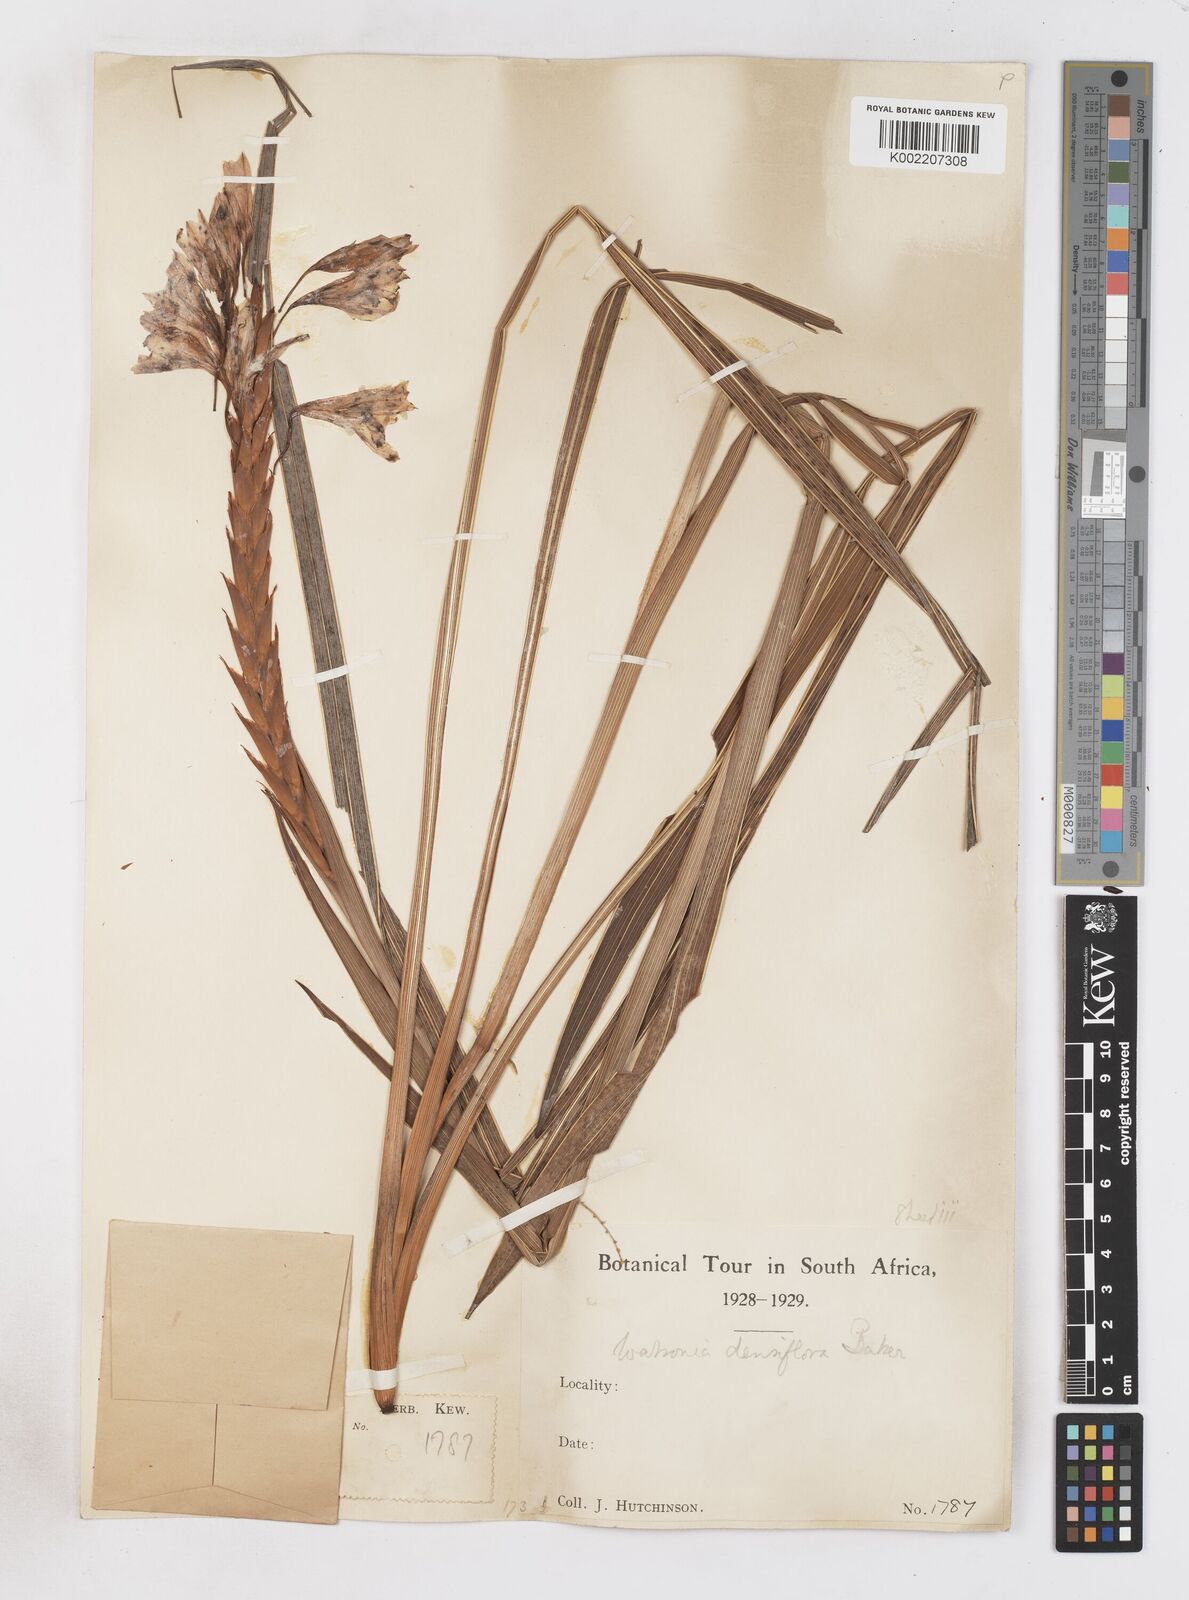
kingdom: Plantae
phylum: Tracheophyta
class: Liliopsida
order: Asparagales
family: Iridaceae
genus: Watsonia
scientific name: Watsonia densiflora
